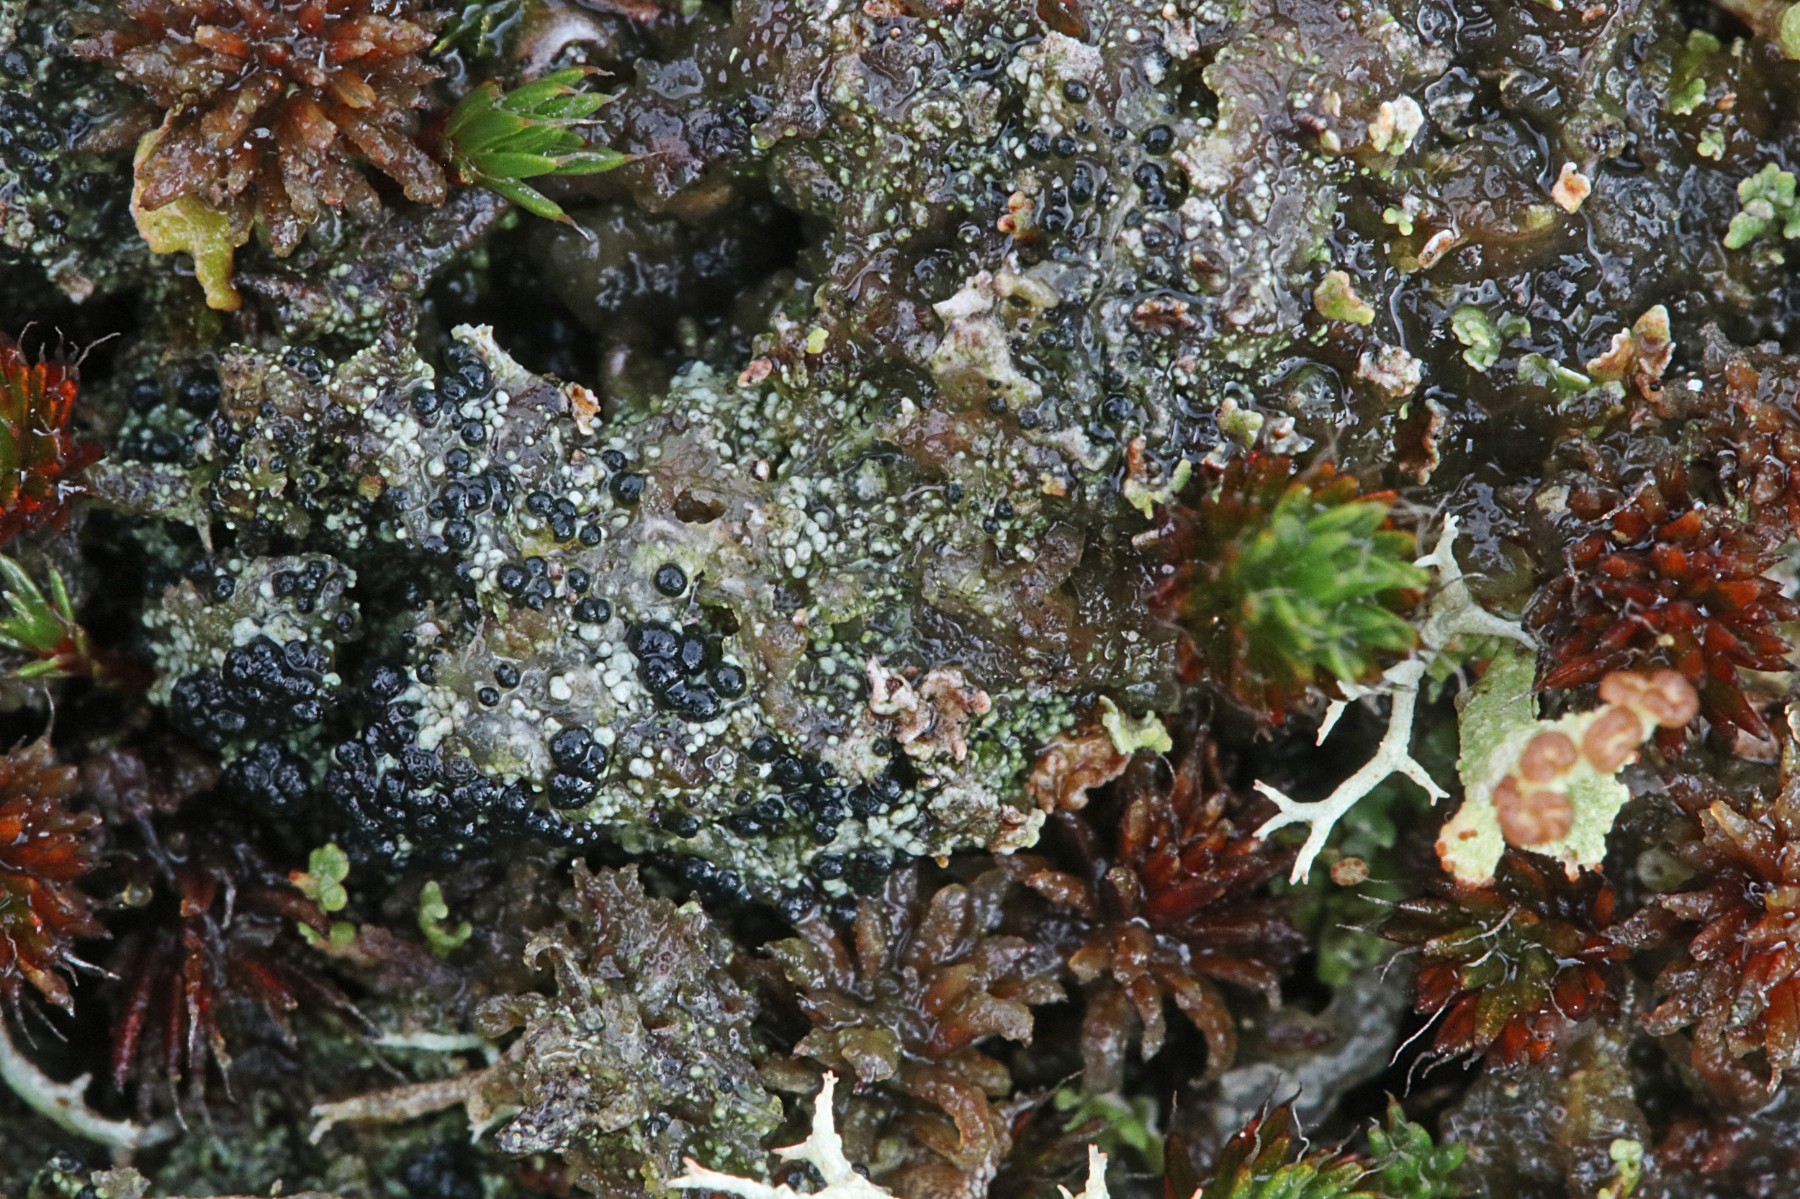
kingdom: Fungi
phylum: Ascomycota
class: Lecanoromycetes
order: Lecanorales
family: Byssolomataceae
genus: Micarea
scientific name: Micarea lignaria
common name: tørve-knaplav
